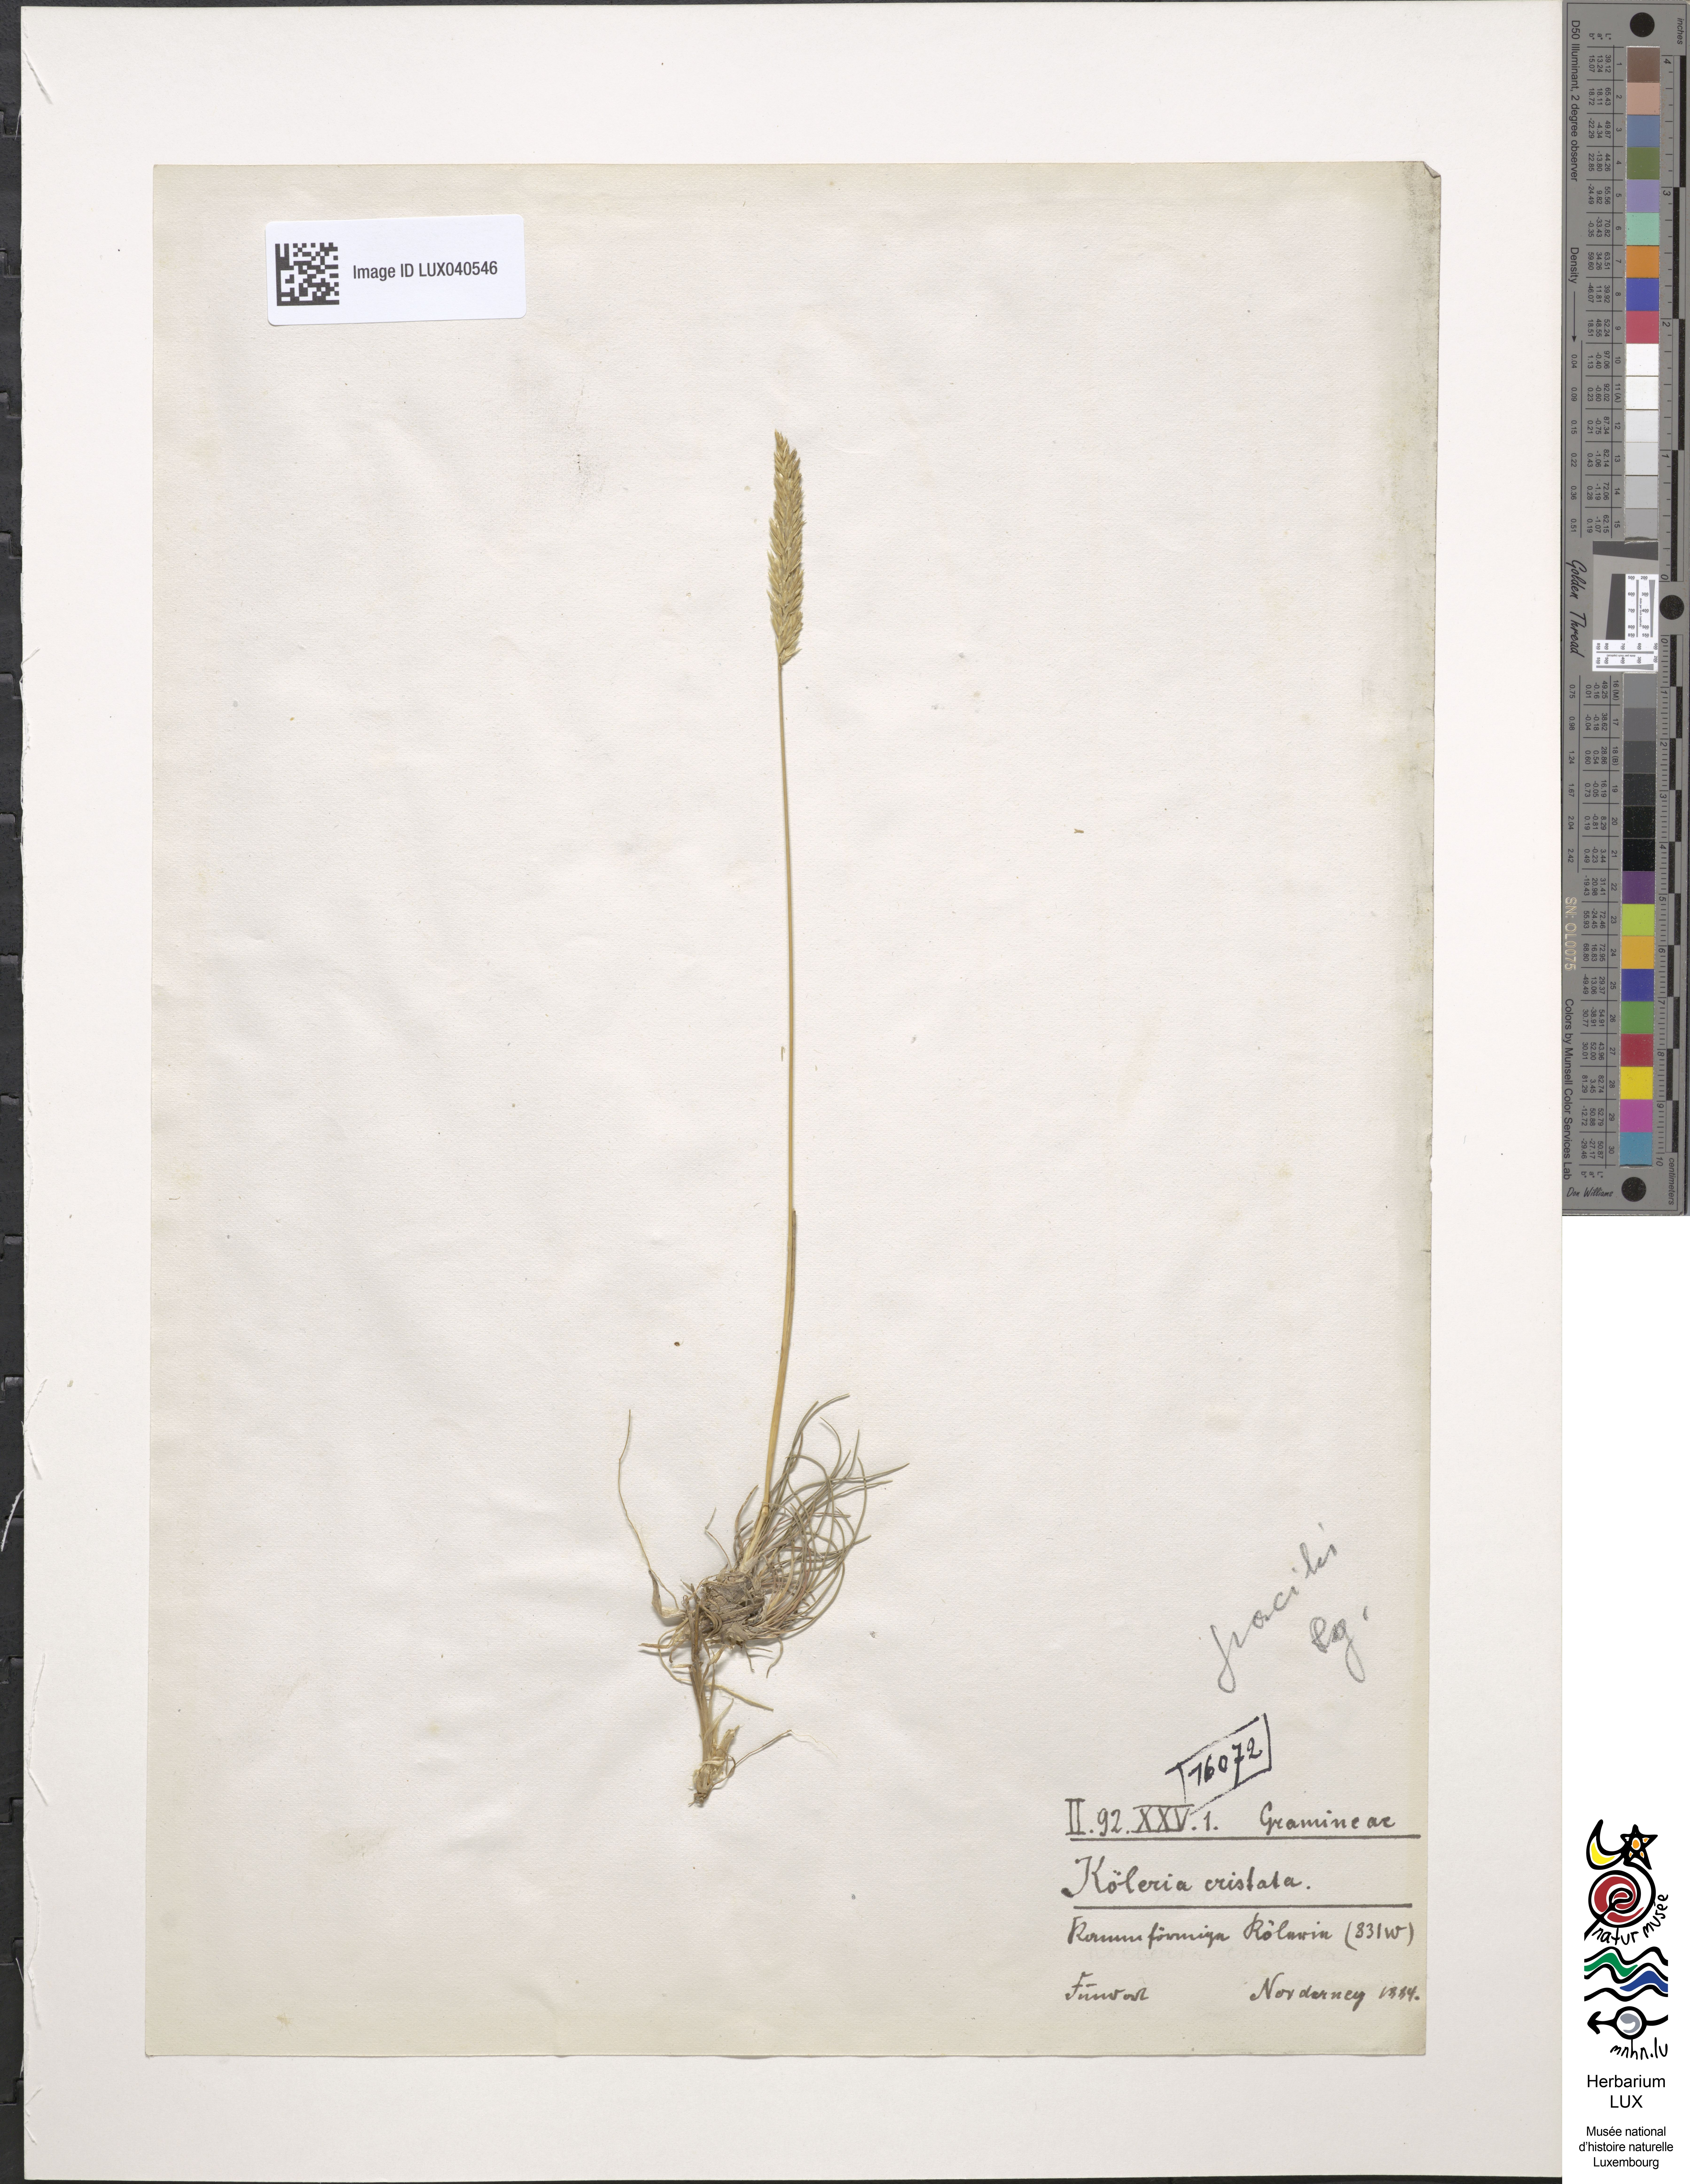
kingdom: Plantae
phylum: Tracheophyta
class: Liliopsida
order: Poales
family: Poaceae
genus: Koeleria
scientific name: Koeleria pyramidata
